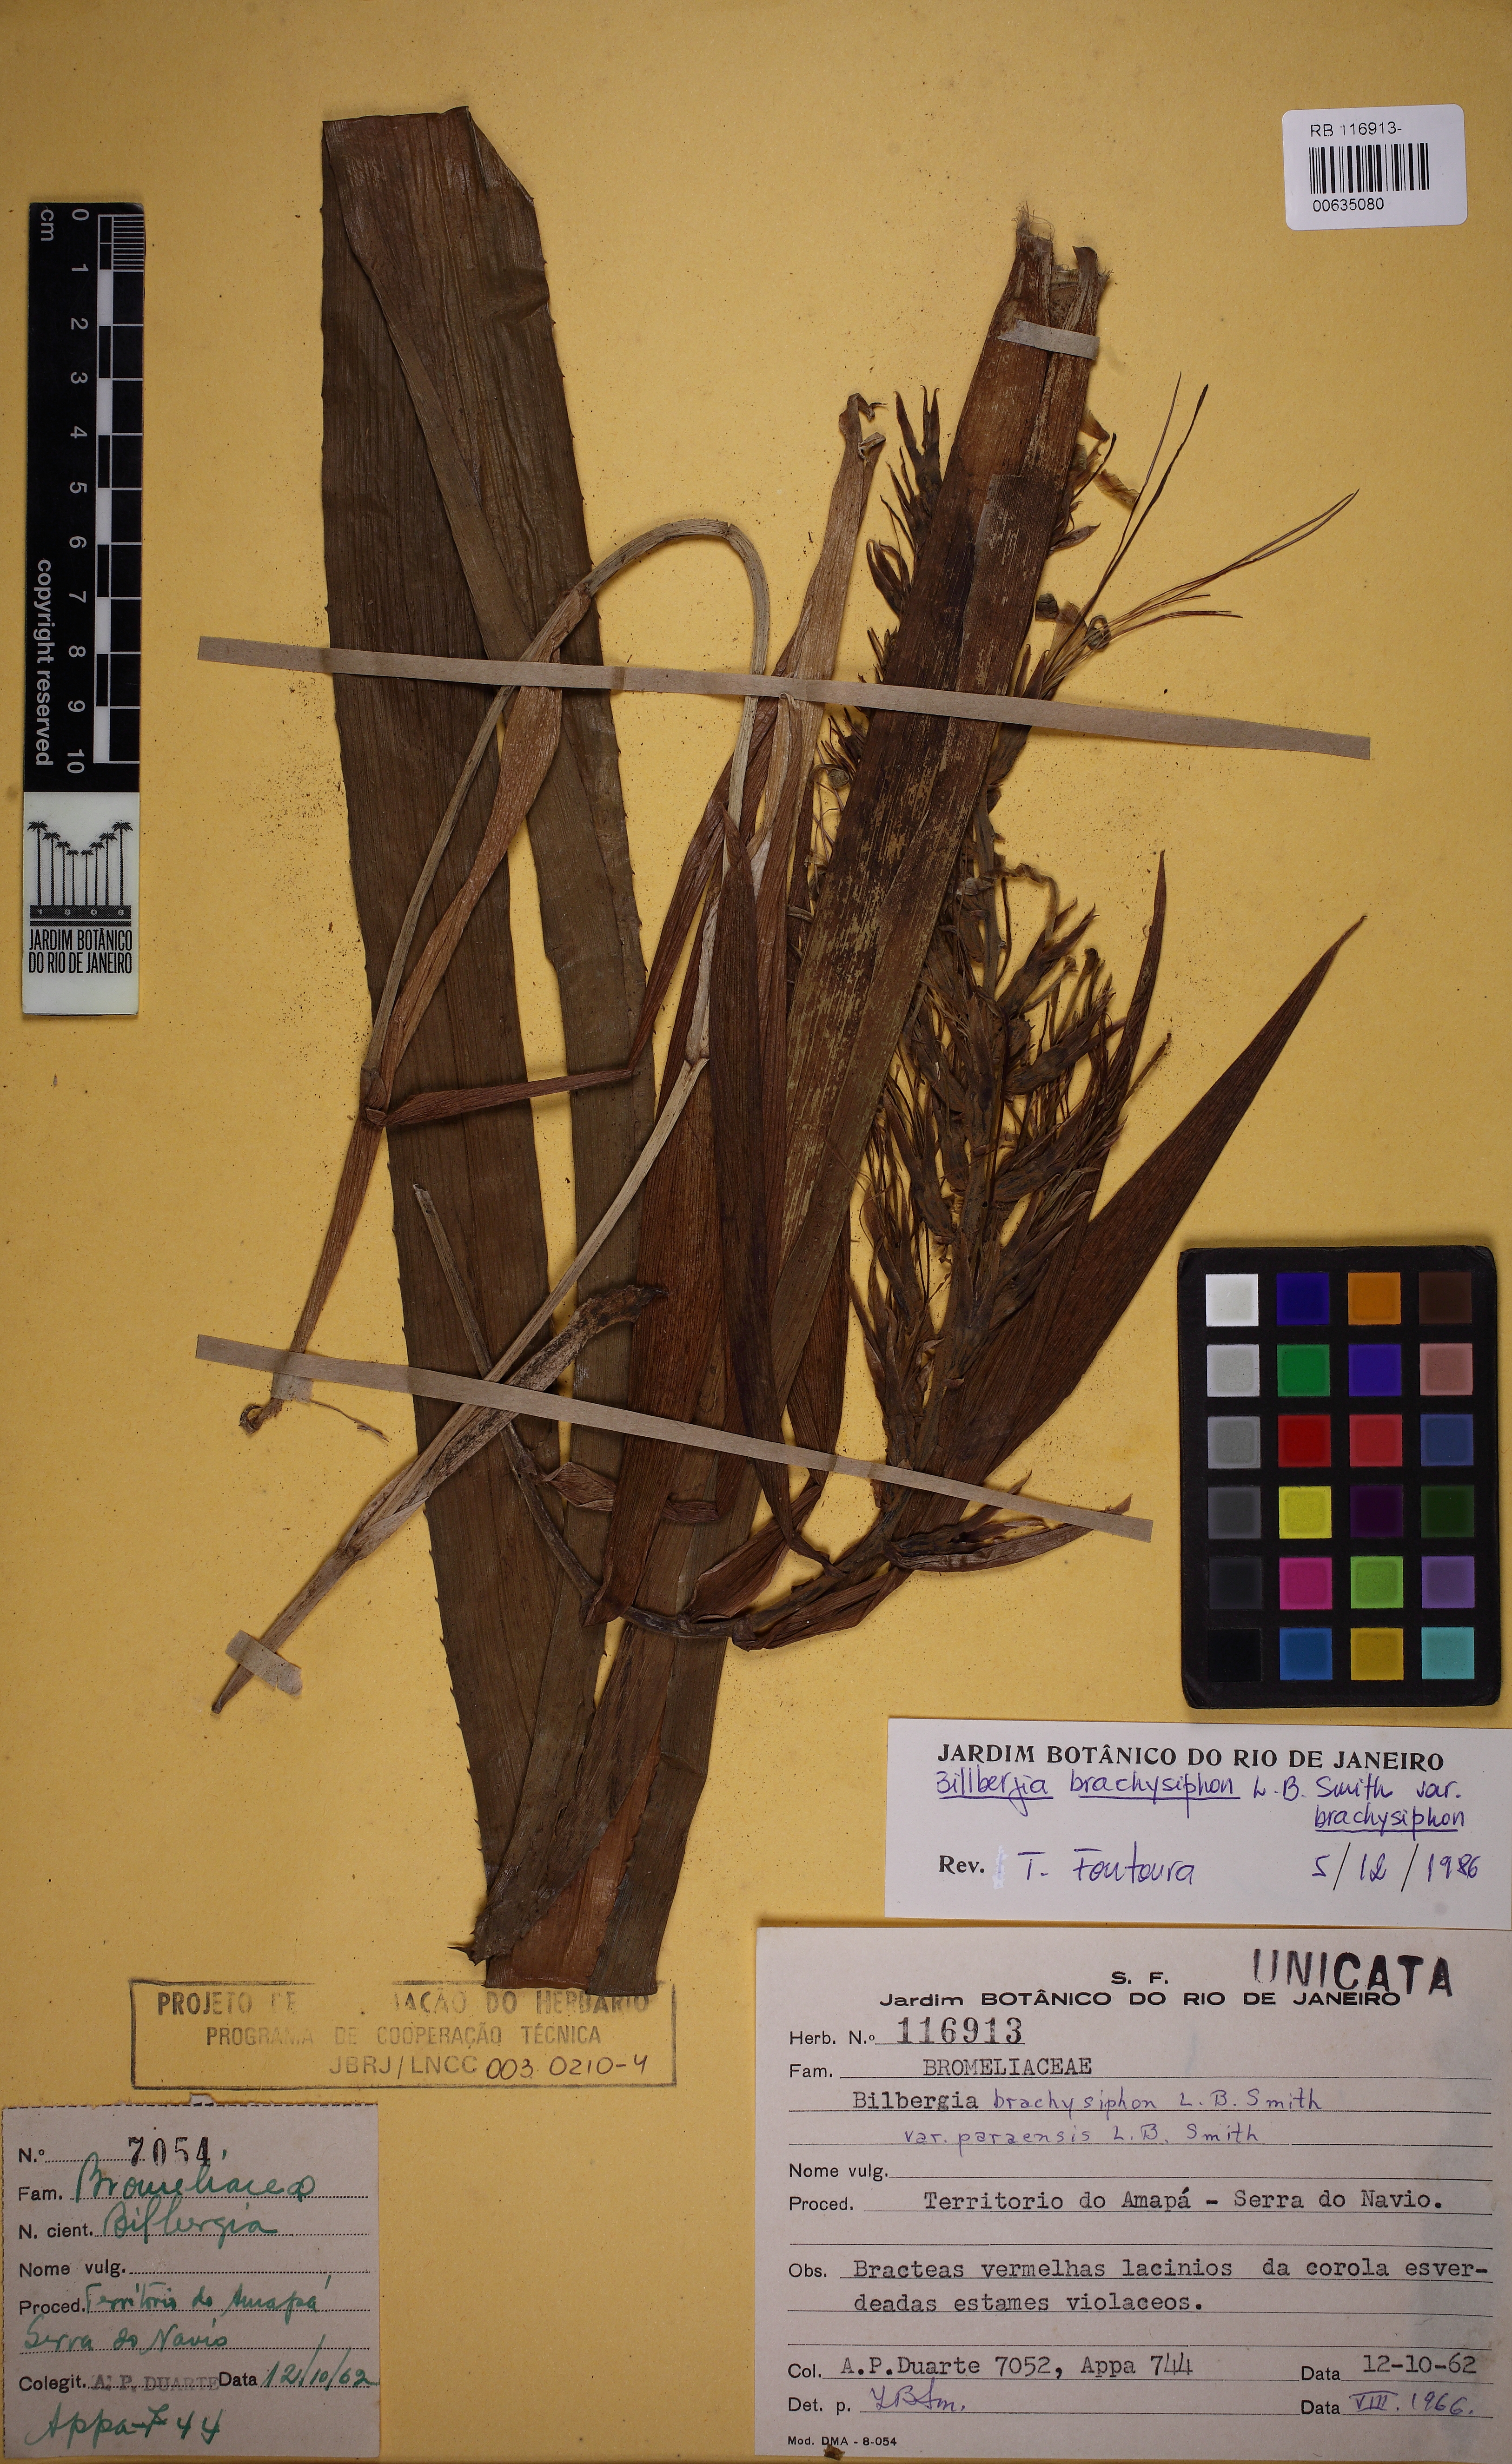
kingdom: Plantae
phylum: Tracheophyta
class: Liliopsida
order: Poales
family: Bromeliaceae
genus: Billbergia
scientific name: Billbergia brachysiphon
